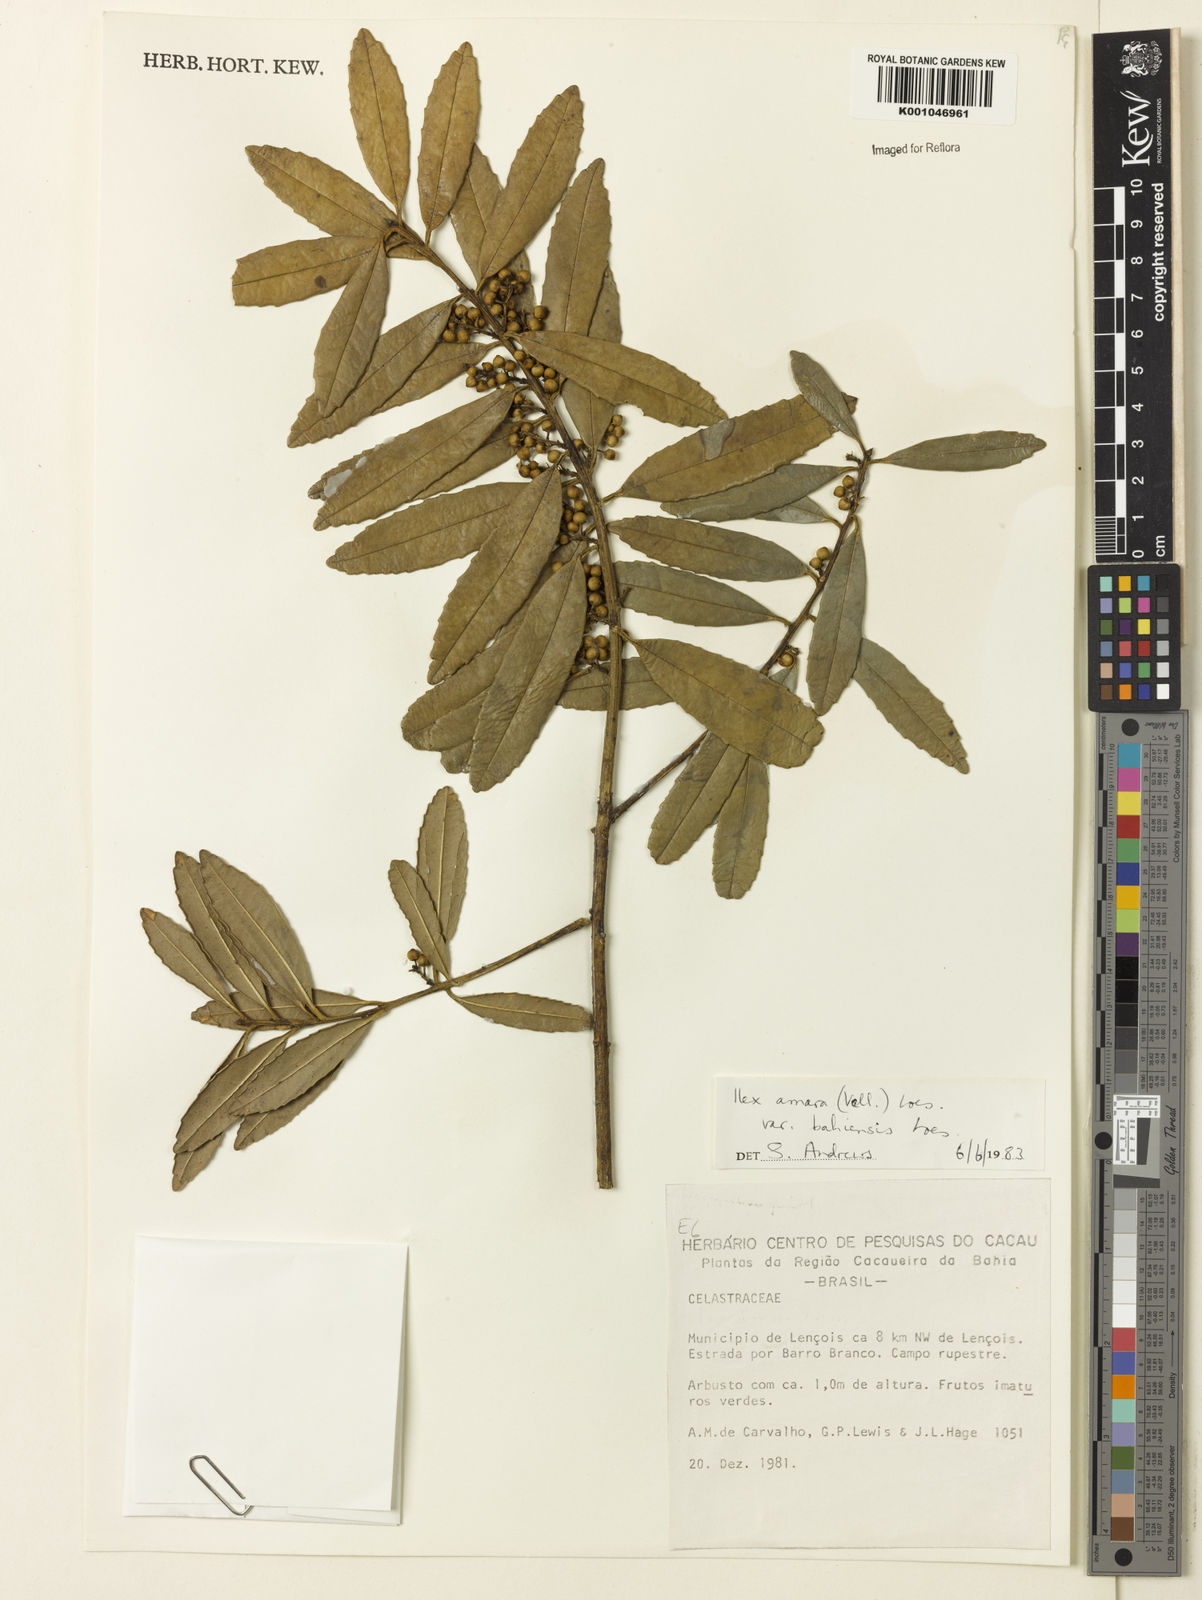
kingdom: Plantae
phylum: Tracheophyta
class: Magnoliopsida
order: Aquifoliales
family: Aquifoliaceae
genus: Ilex
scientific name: Ilex dumosa
